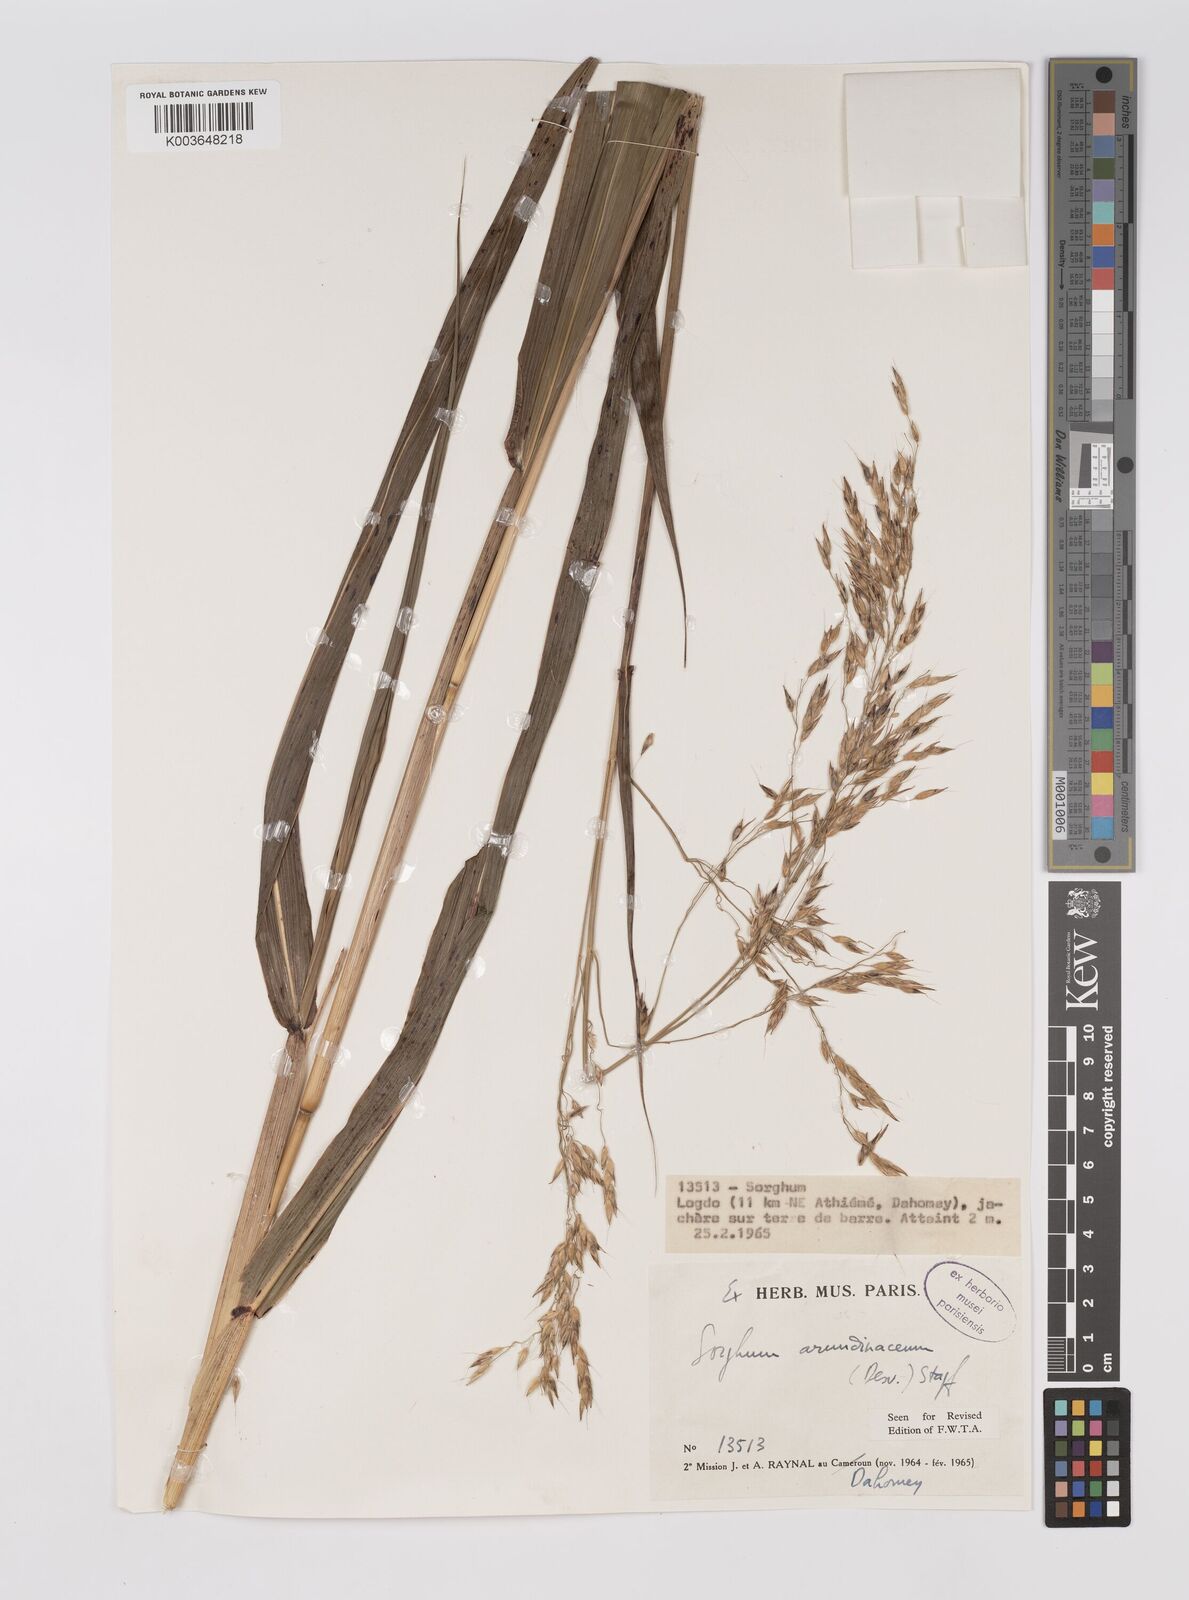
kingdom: Plantae
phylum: Tracheophyta
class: Liliopsida
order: Poales
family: Poaceae
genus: Sorghum
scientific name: Sorghum arundinaceum
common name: Sorghum
